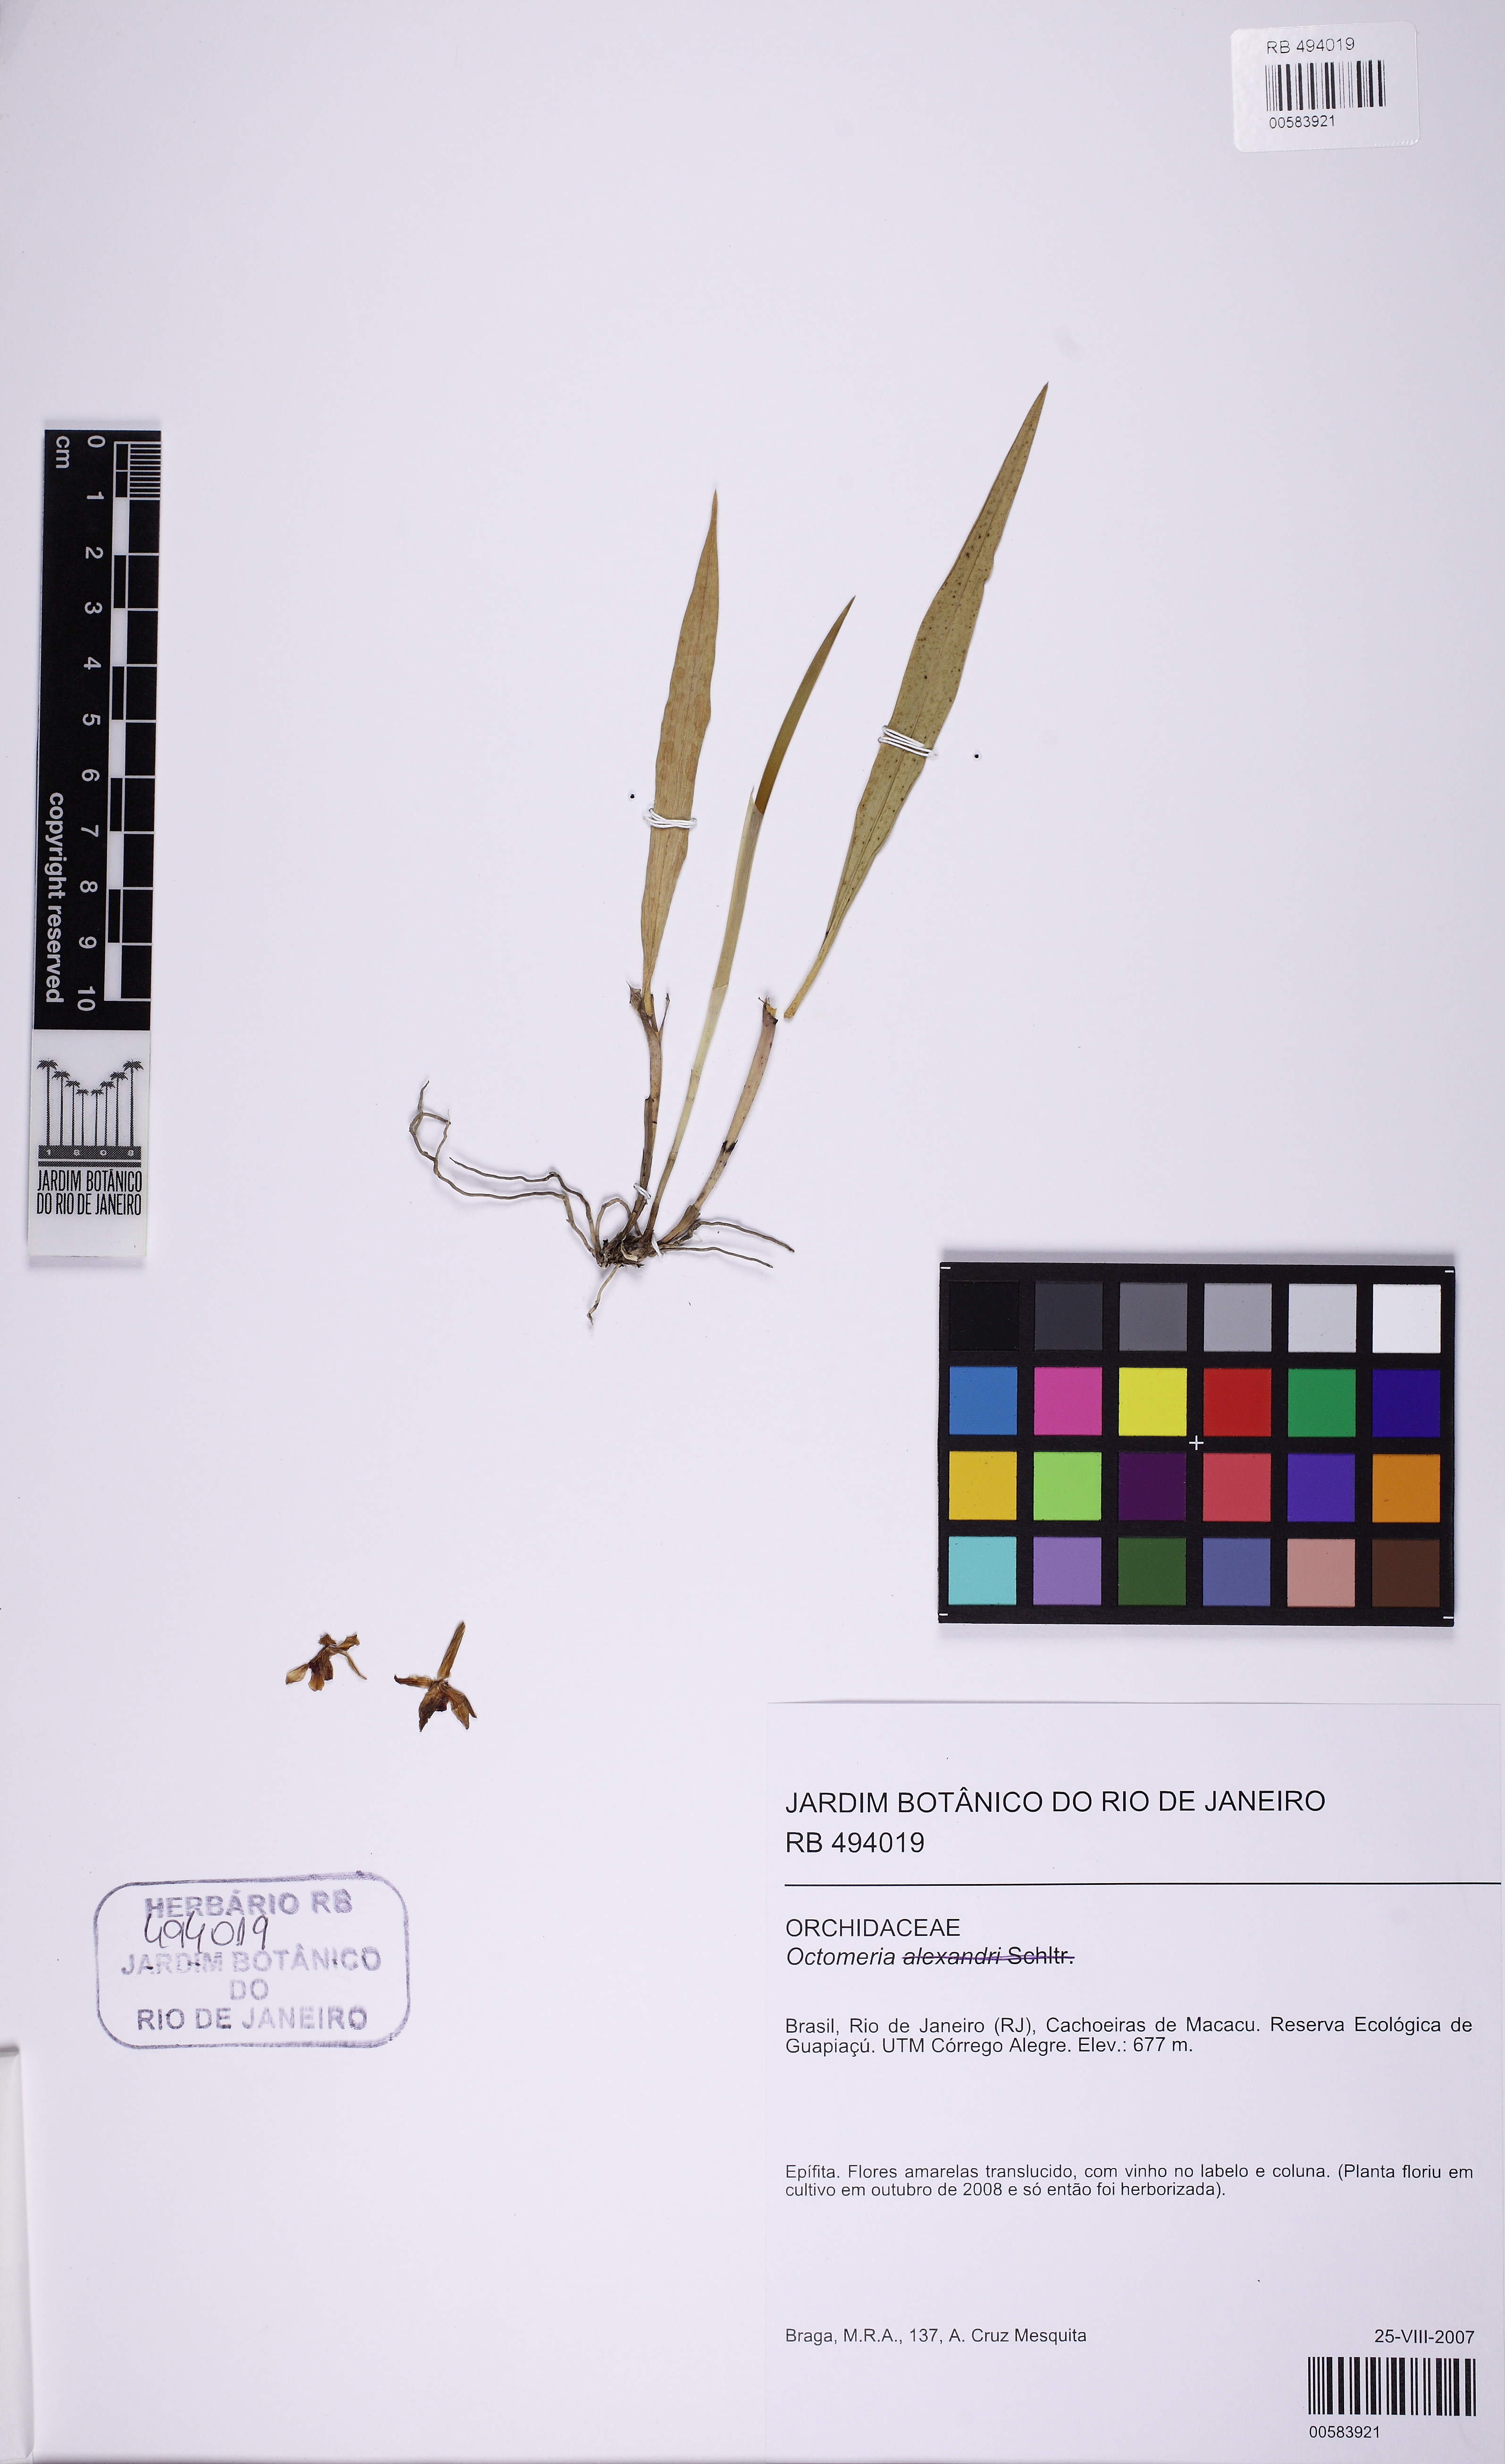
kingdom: Plantae
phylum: Tracheophyta
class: Liliopsida
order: Asparagales
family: Orchidaceae
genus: Octomeria
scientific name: Octomeria
